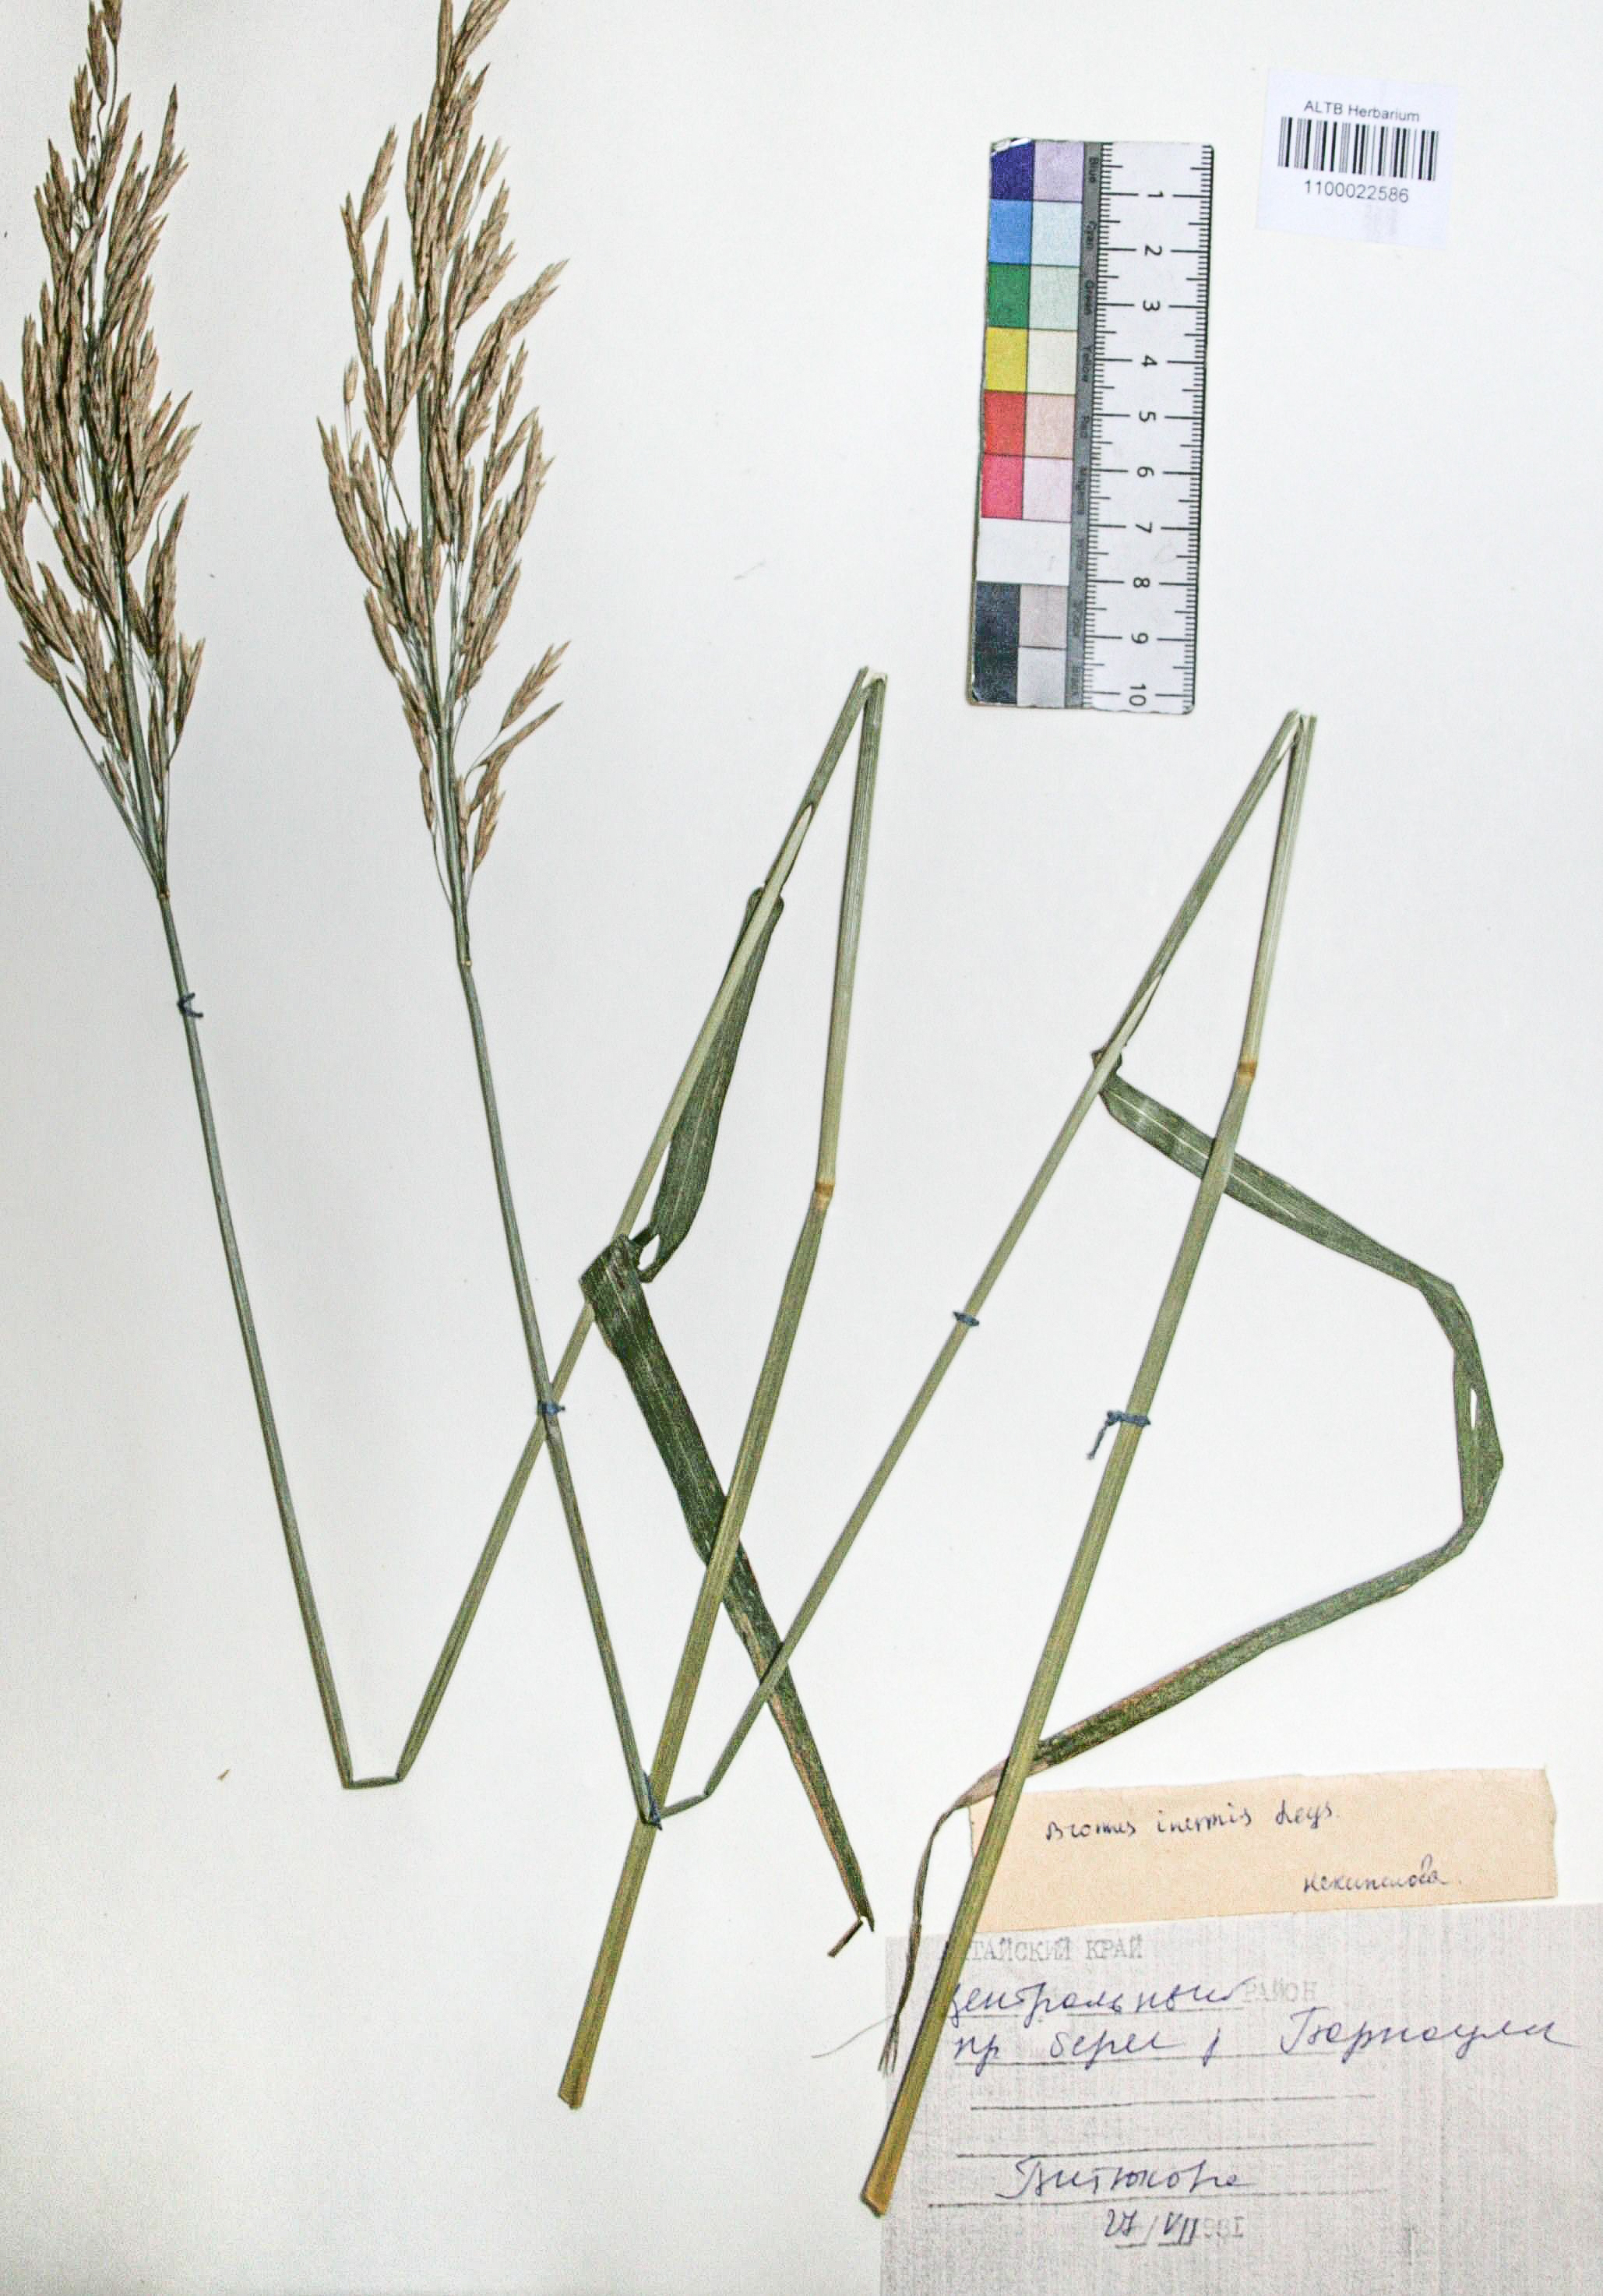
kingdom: Plantae
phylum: Tracheophyta
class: Liliopsida
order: Poales
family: Poaceae
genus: Bromus
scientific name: Bromus inermis
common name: Smooth brome
